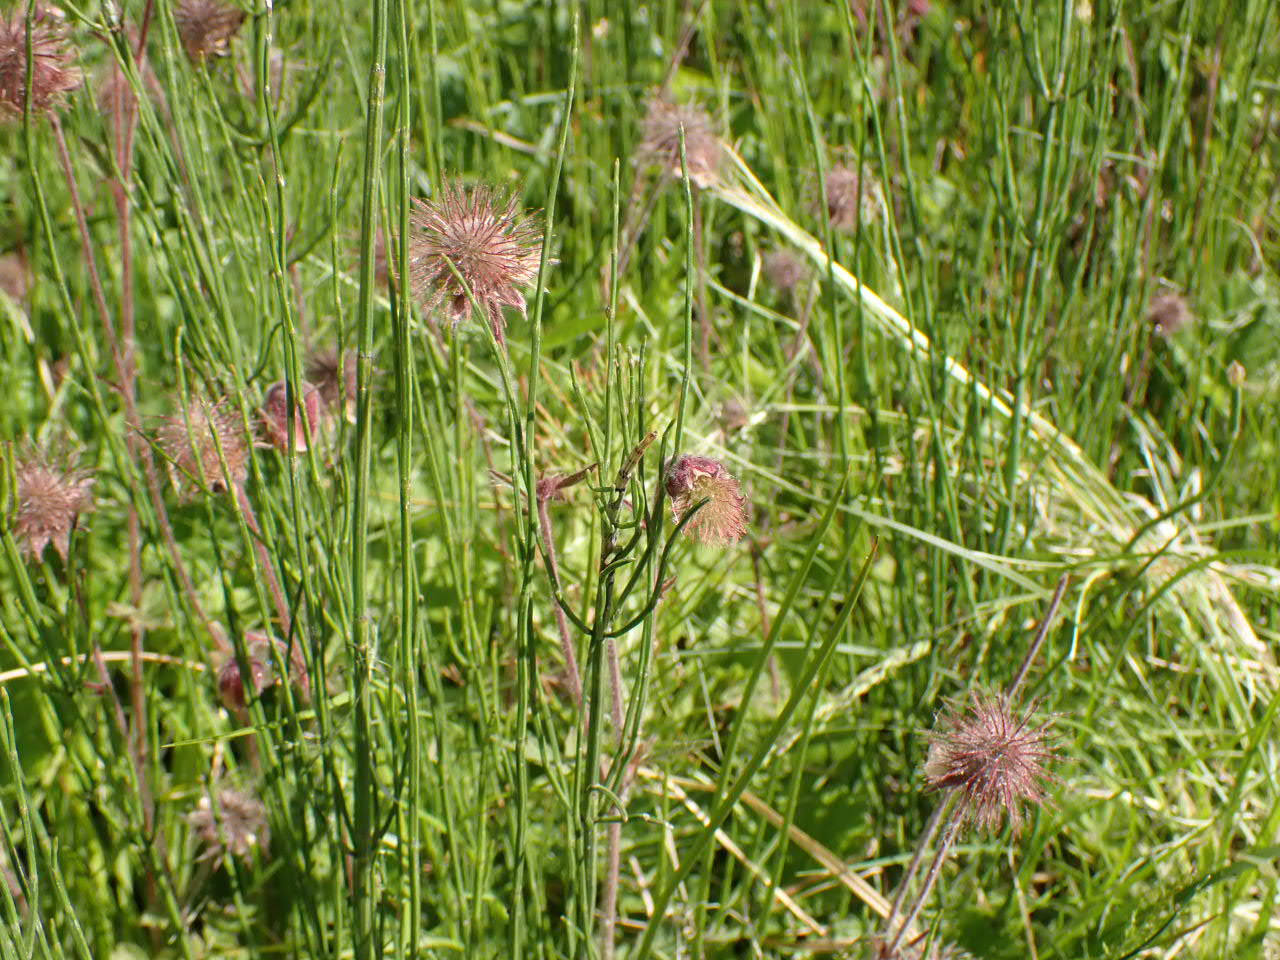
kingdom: Plantae
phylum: Tracheophyta
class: Magnoliopsida
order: Rosales
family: Rosaceae
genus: Geum
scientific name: Geum rivale
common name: Eng-nellikerod
